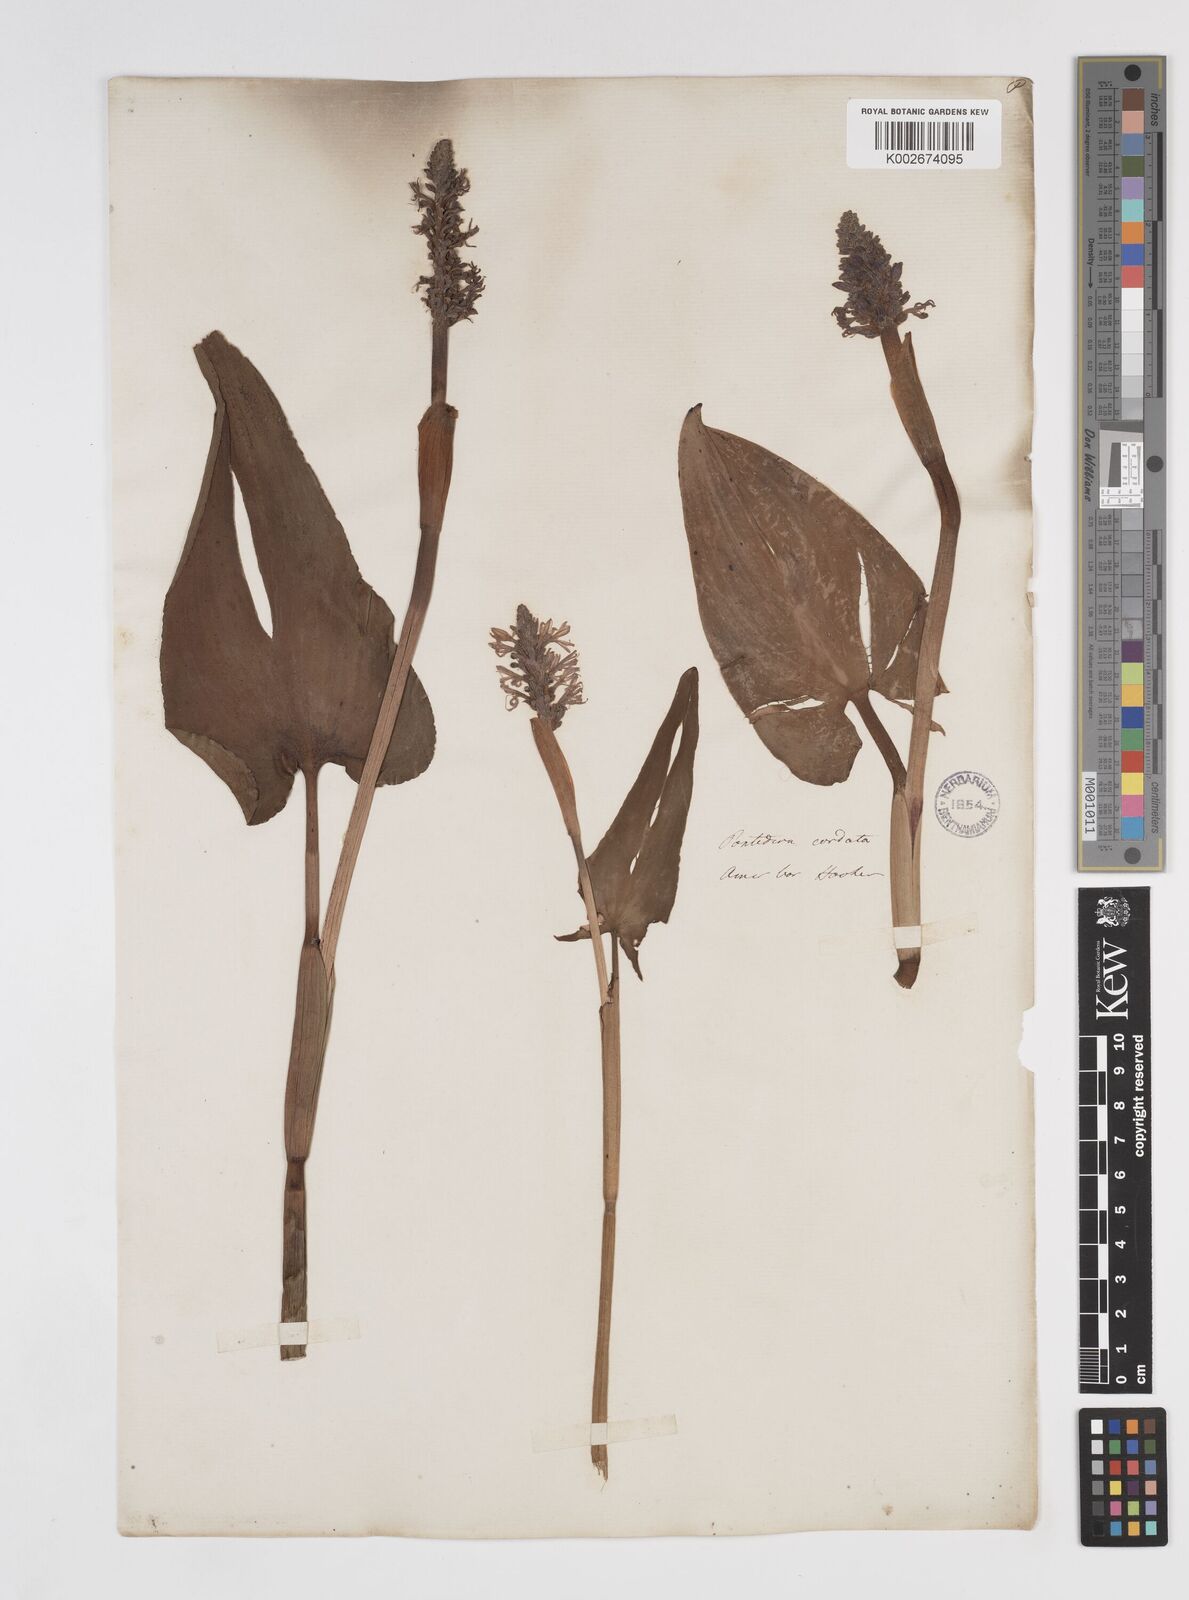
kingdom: Plantae
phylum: Tracheophyta
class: Liliopsida
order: Commelinales
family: Pontederiaceae
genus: Pontederia
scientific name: Pontederia cordata
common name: Pickerelweed
